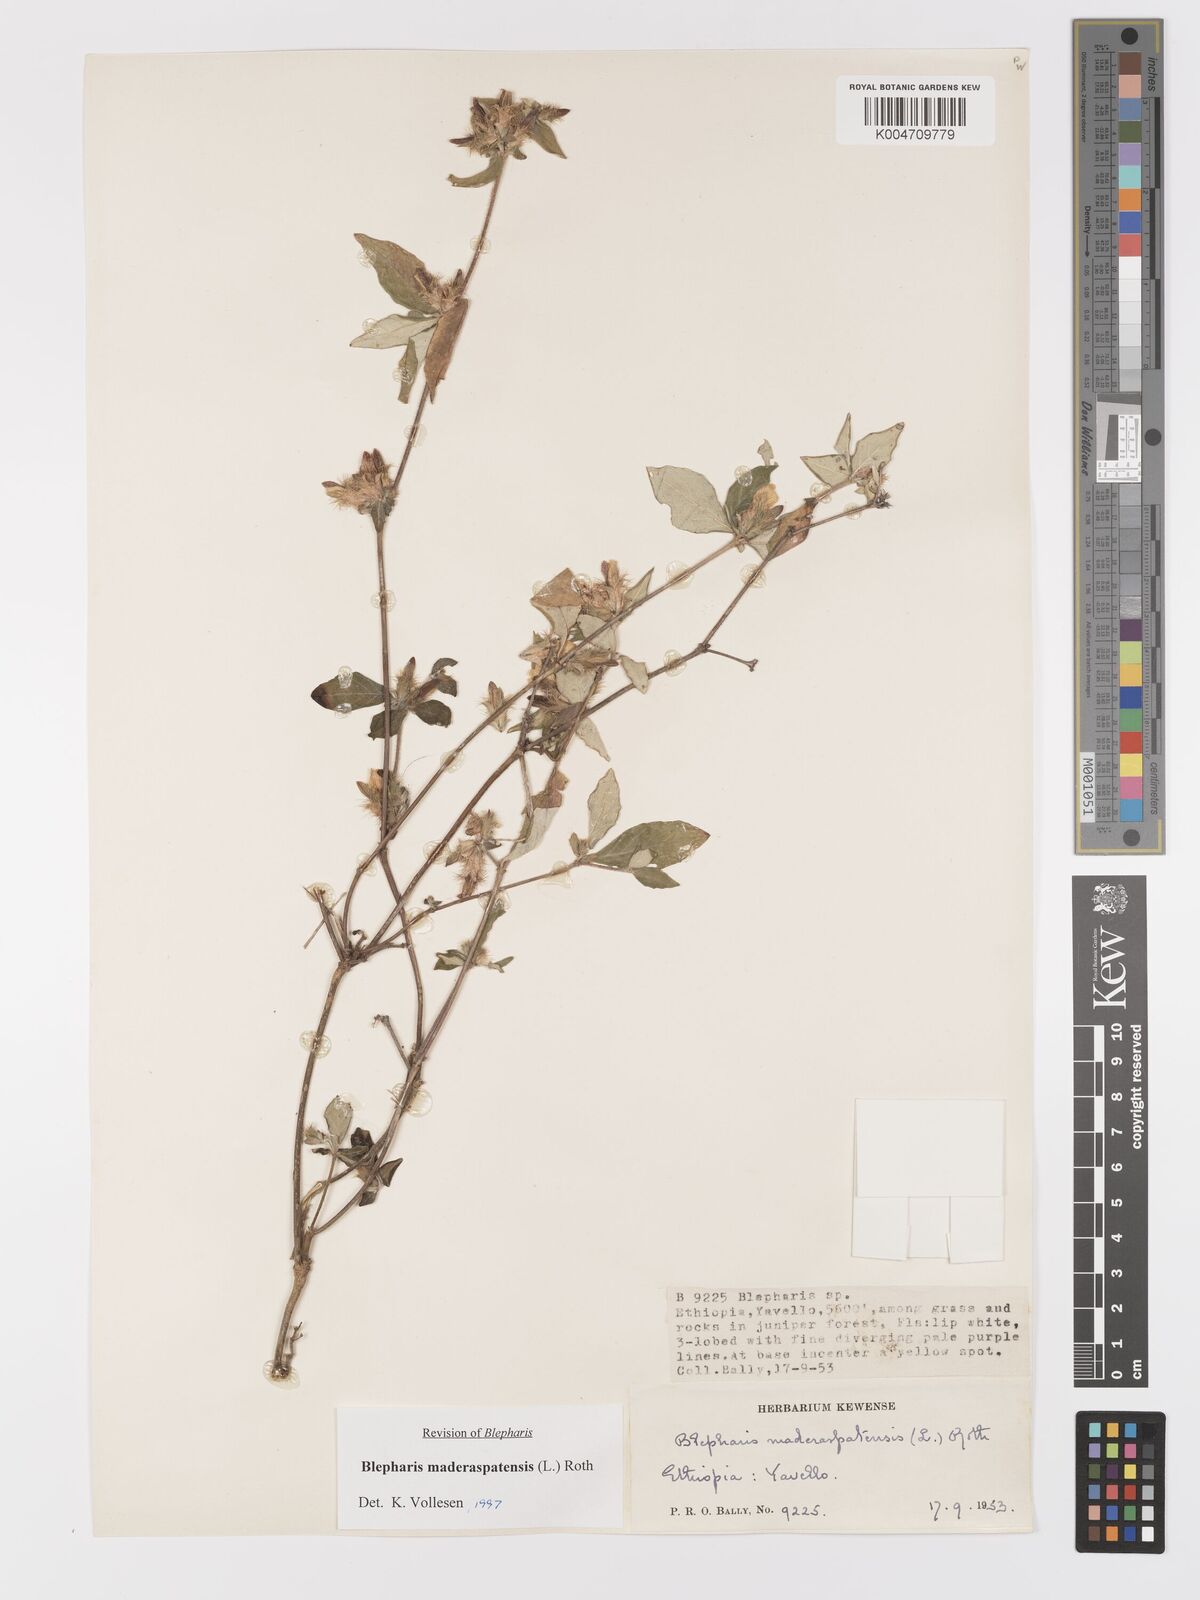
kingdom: Plantae
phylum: Tracheophyta
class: Magnoliopsida
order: Lamiales
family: Acanthaceae
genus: Blepharis
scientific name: Blepharis maderaspatensis
